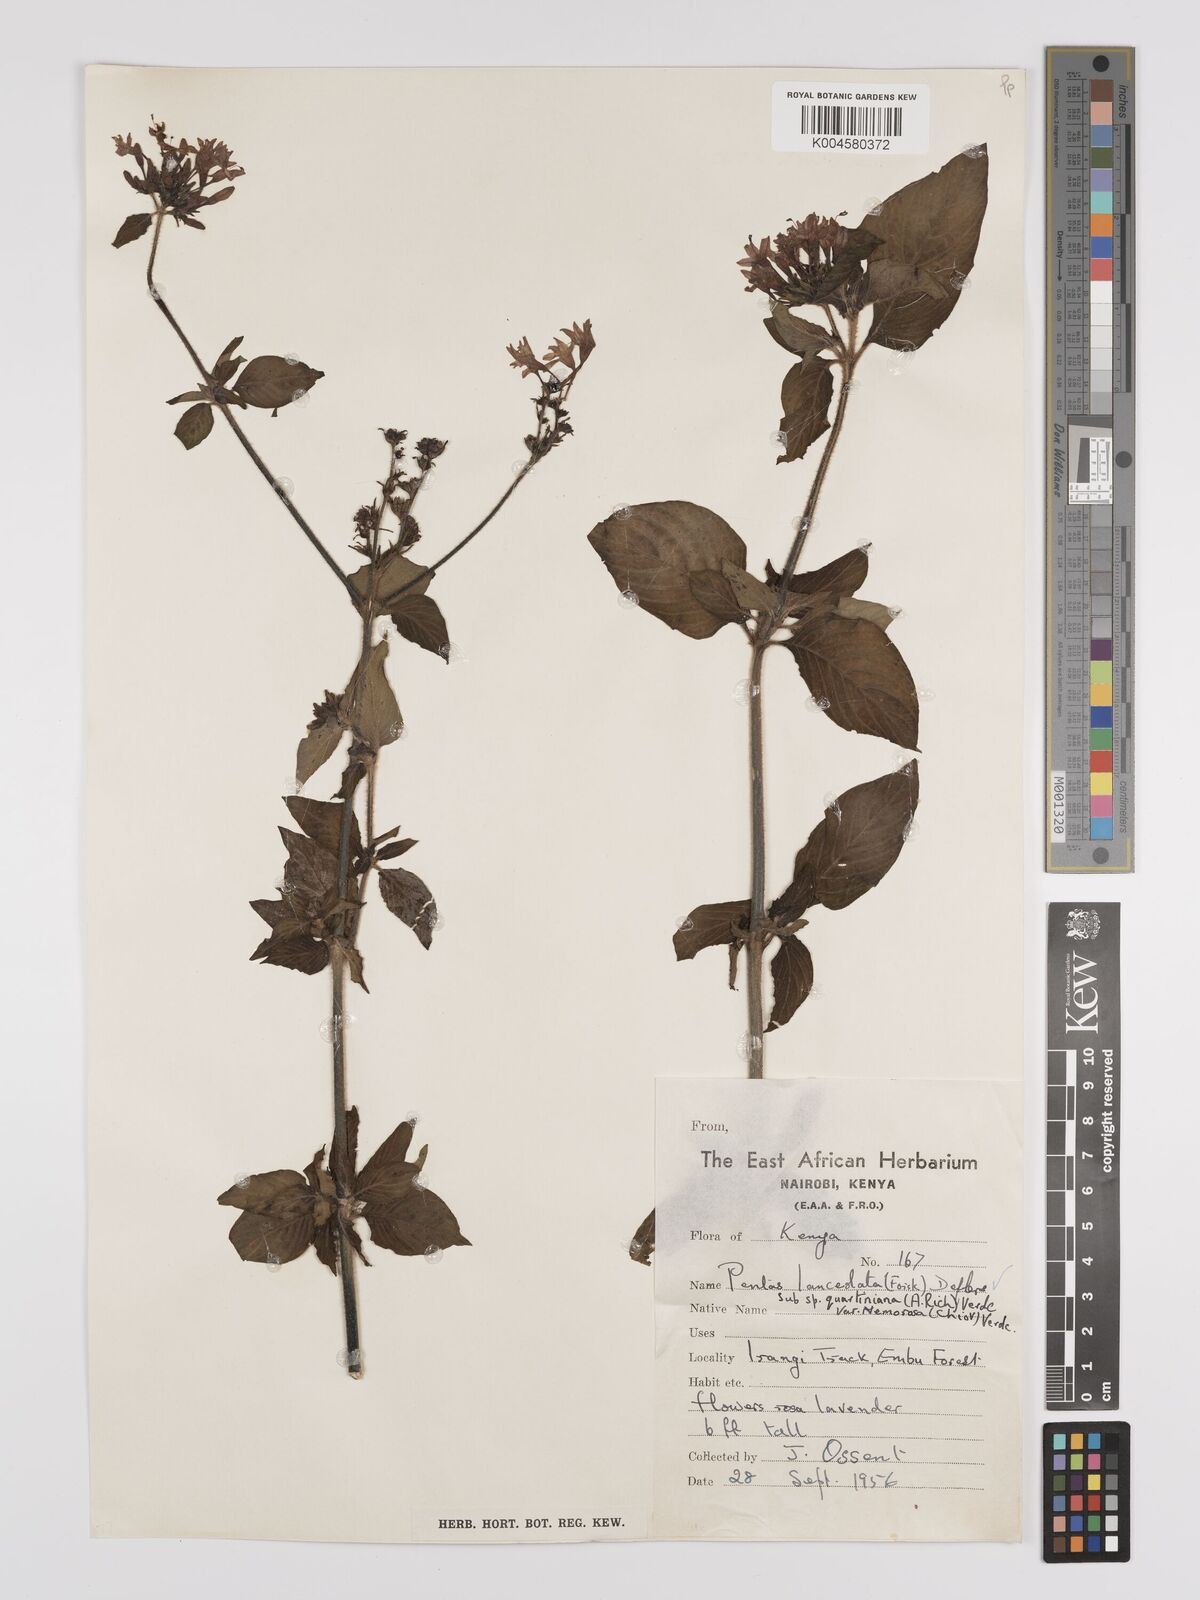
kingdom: Plantae
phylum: Tracheophyta
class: Magnoliopsida
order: Gentianales
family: Rubiaceae
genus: Pentas
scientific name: Pentas lanceolata
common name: Egyptian starcluster
